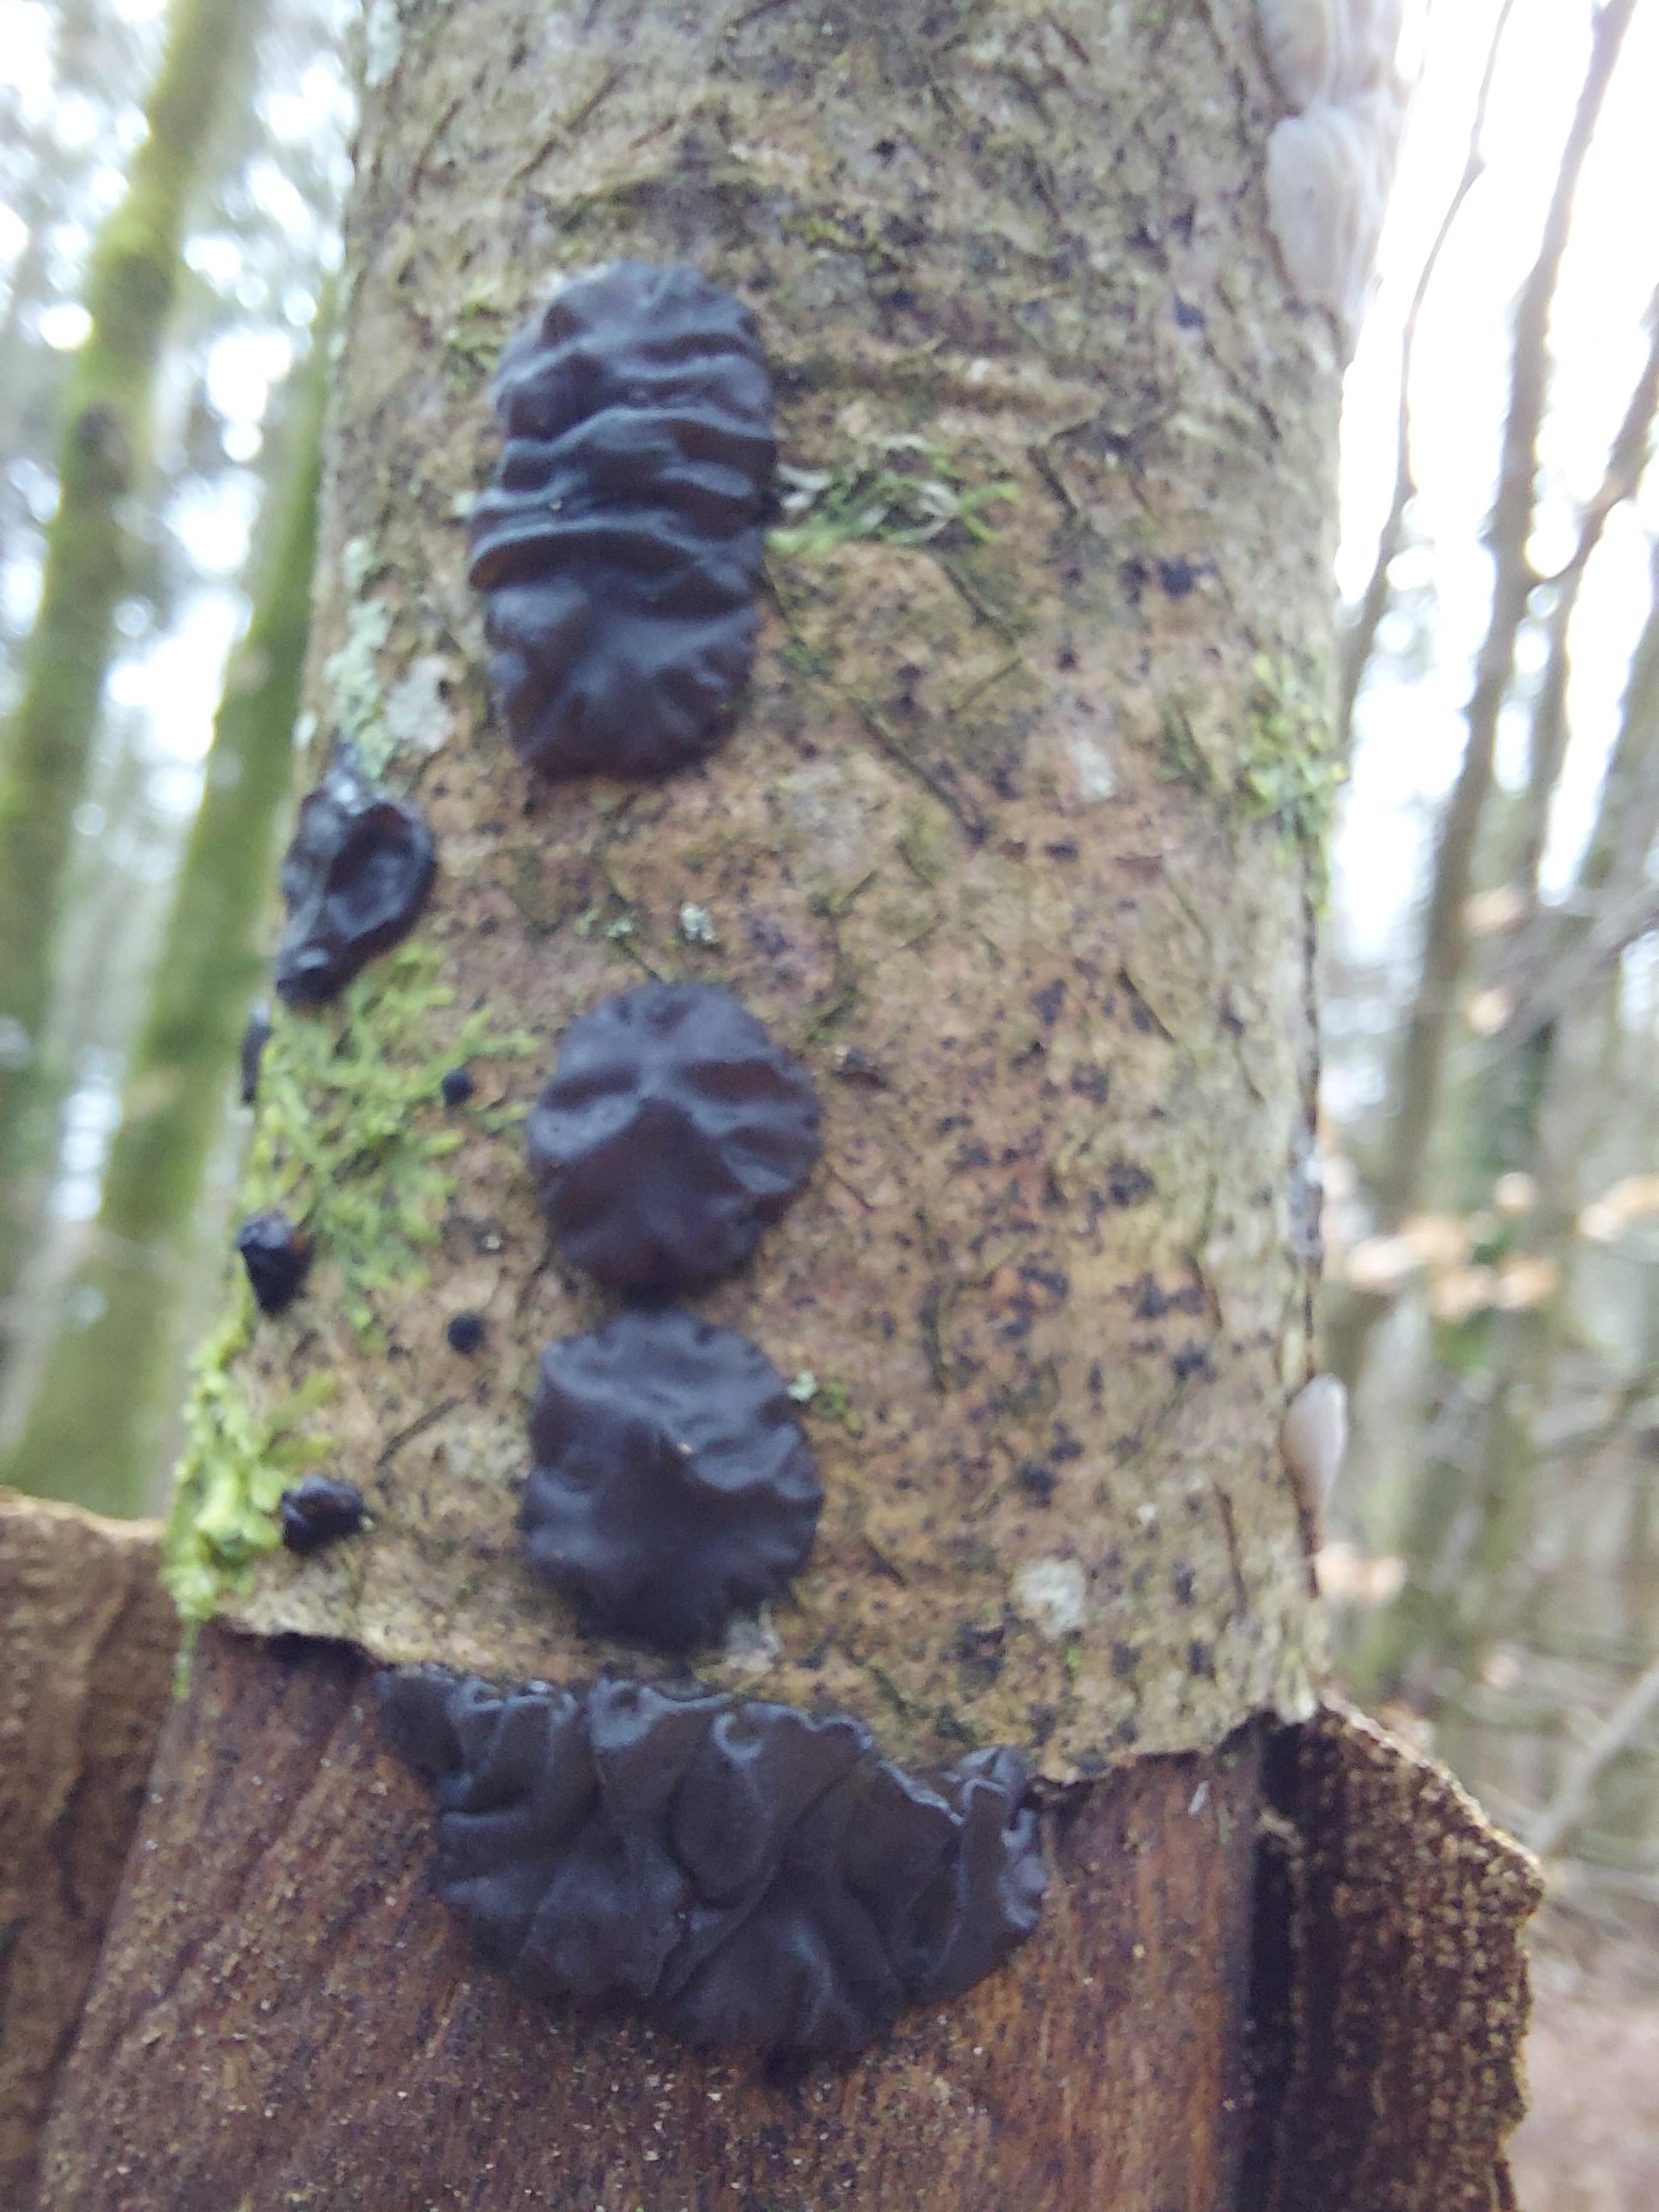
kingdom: Fungi
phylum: Basidiomycota
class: Agaricomycetes
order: Auriculariales
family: Auriculariaceae
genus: Exidia
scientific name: Exidia nigricans
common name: almindelig bævretop
